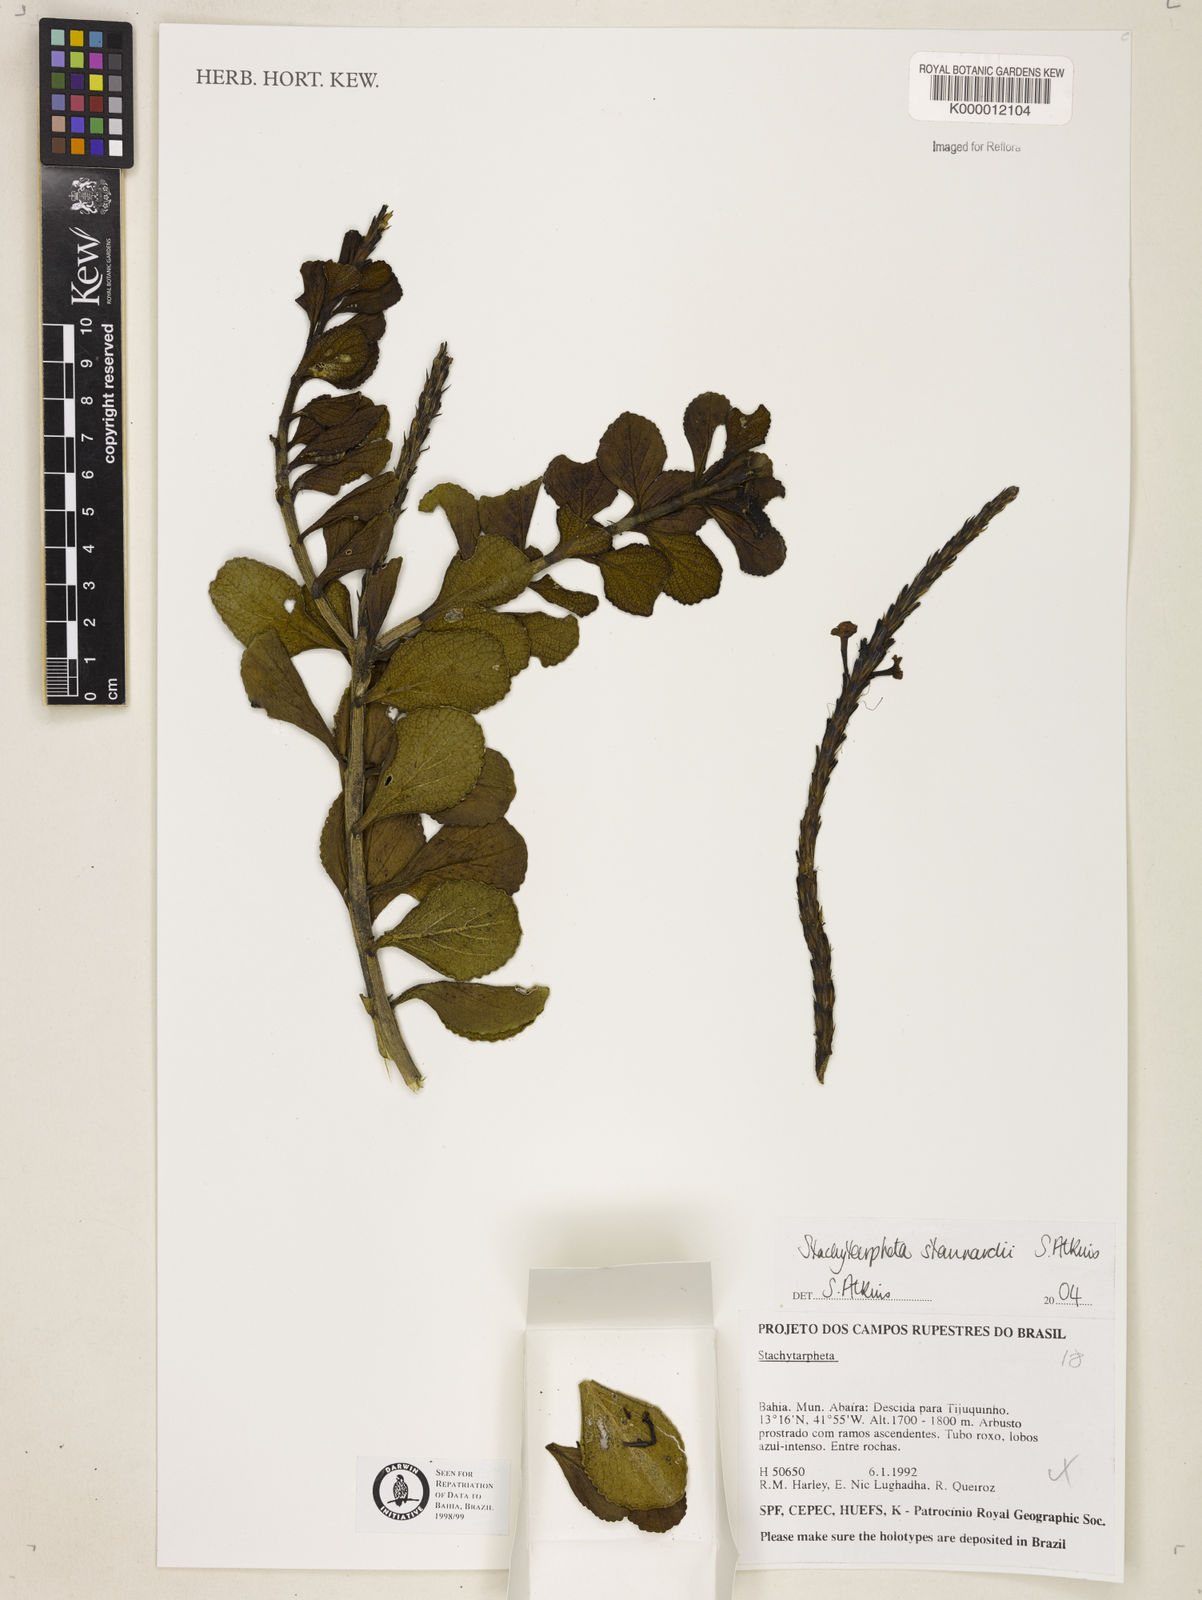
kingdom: Plantae
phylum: Tracheophyta
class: Magnoliopsida
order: Lamiales
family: Verbenaceae
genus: Stachytarpheta
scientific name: Stachytarpheta
